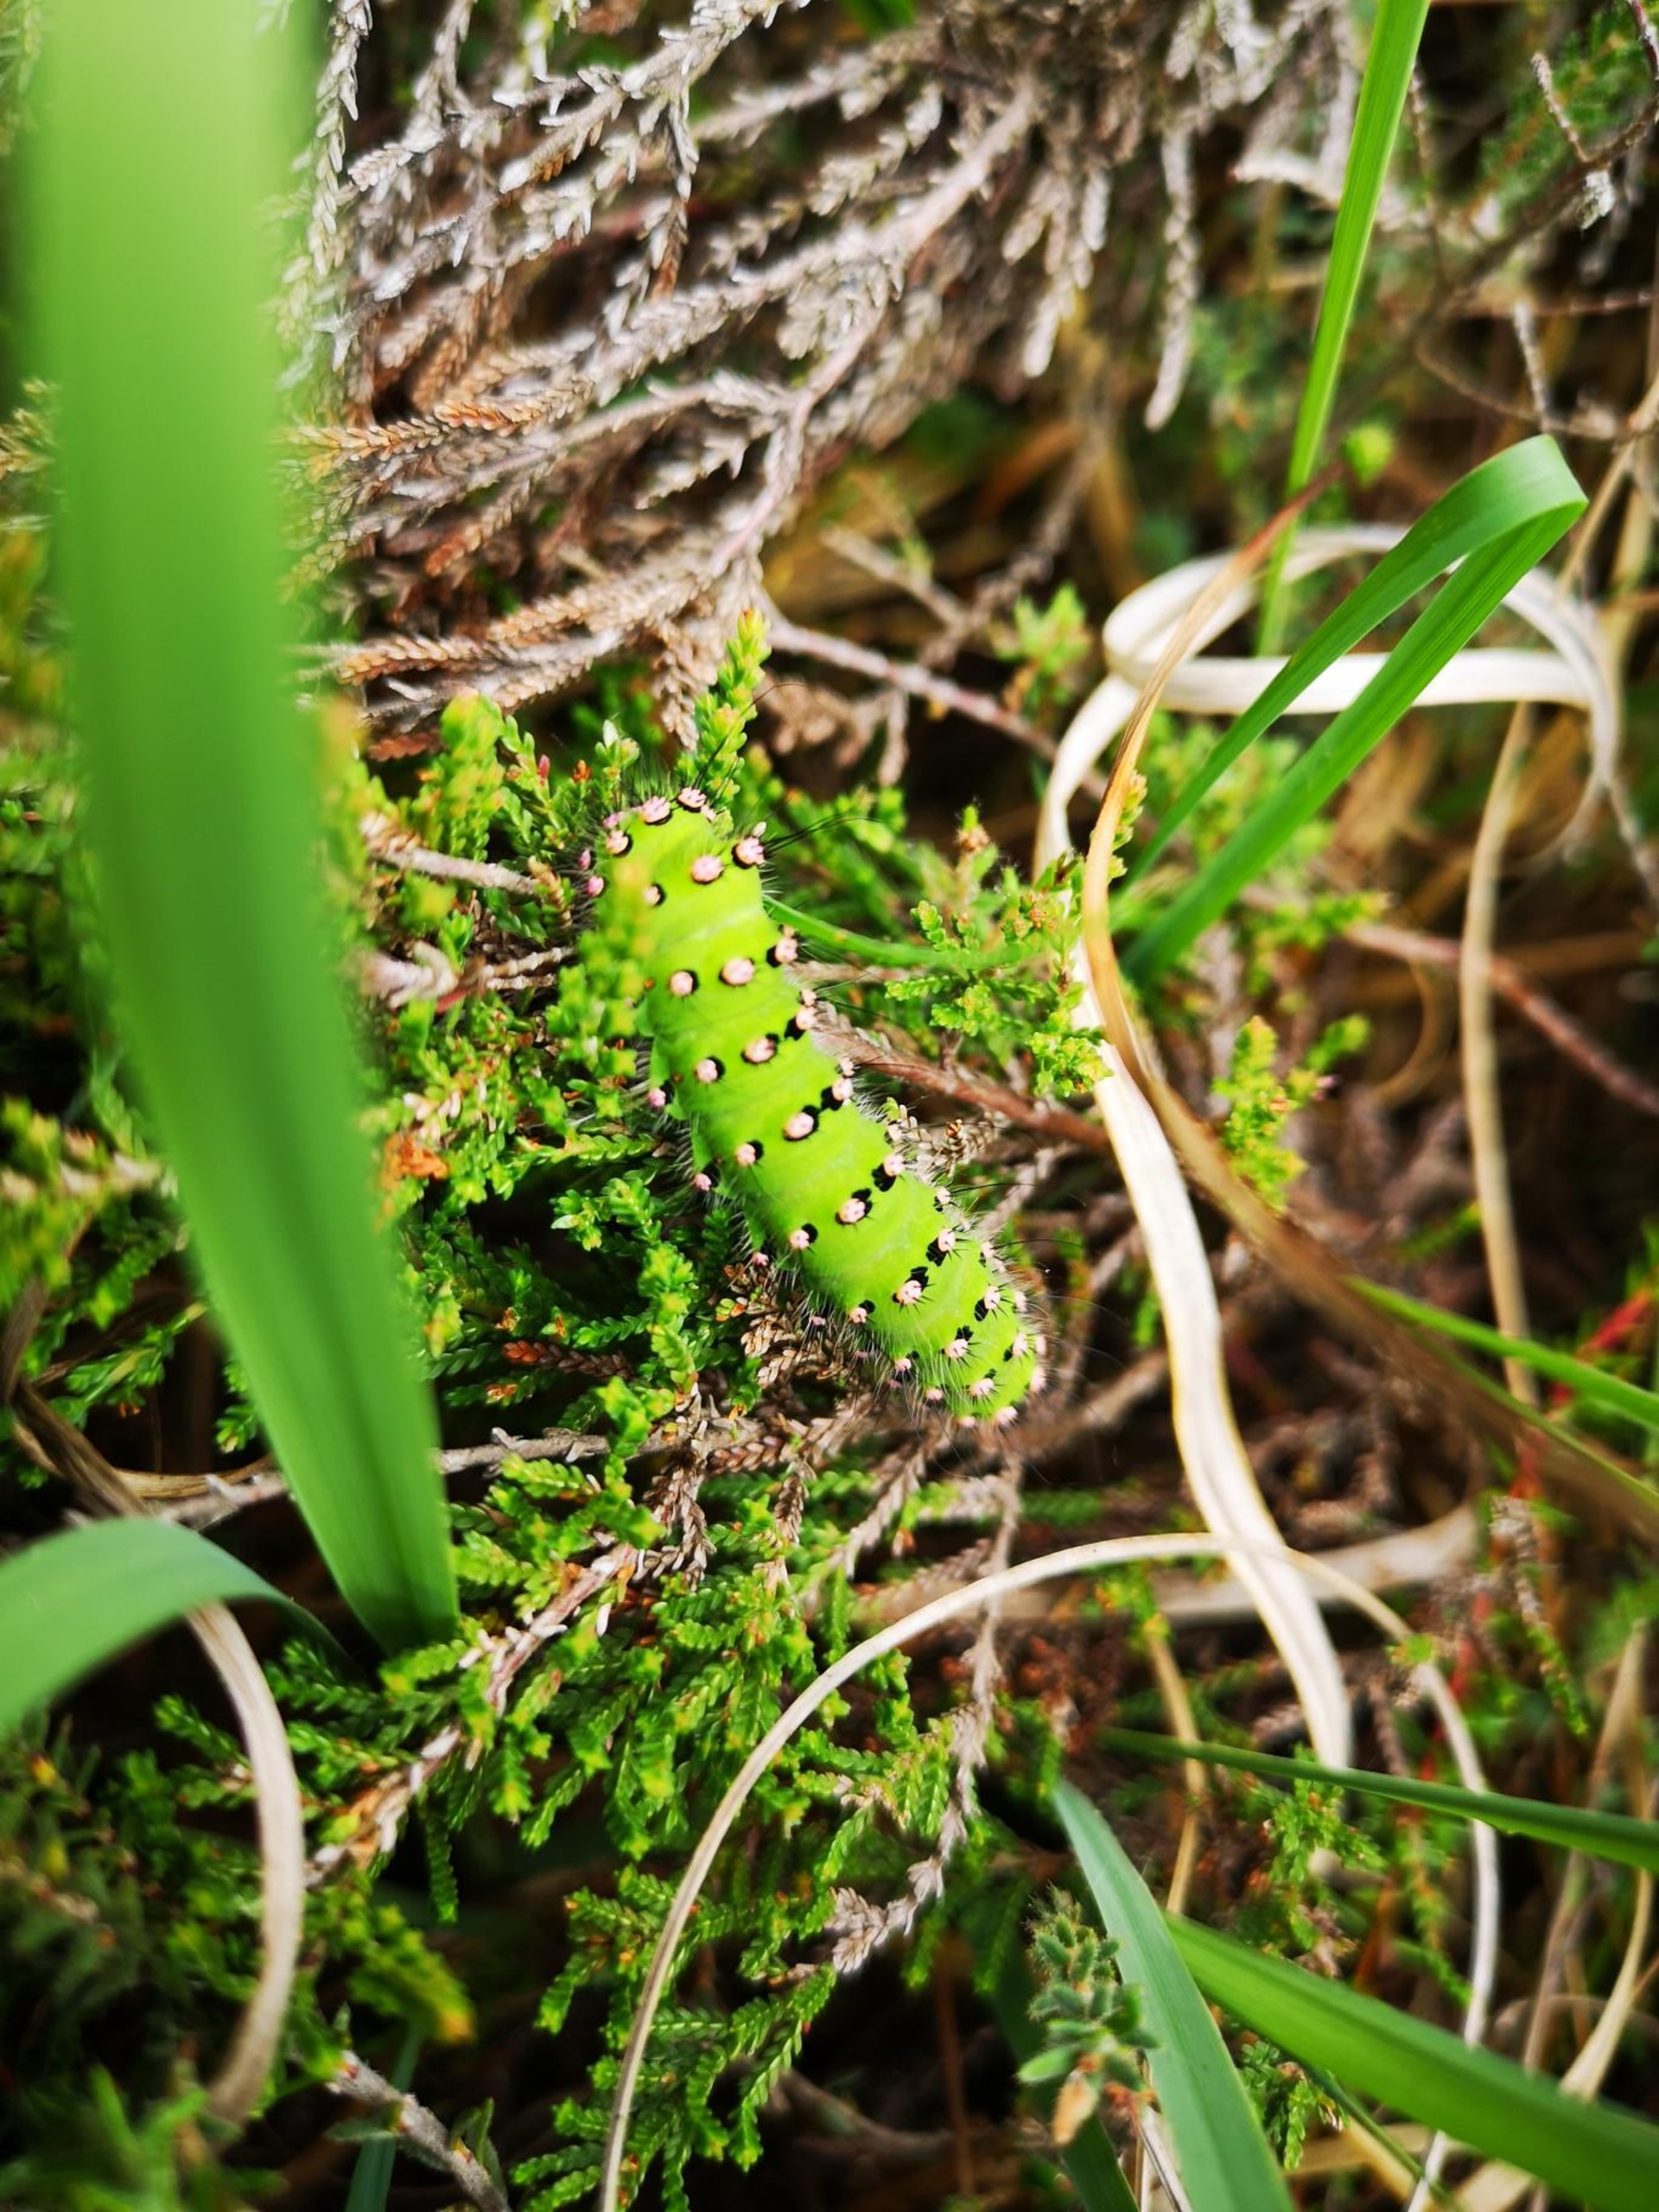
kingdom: Animalia
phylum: Arthropoda
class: Insecta
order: Lepidoptera
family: Saturniidae
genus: Saturnia
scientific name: Saturnia pavonia
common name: Lille natpåfugleøje
